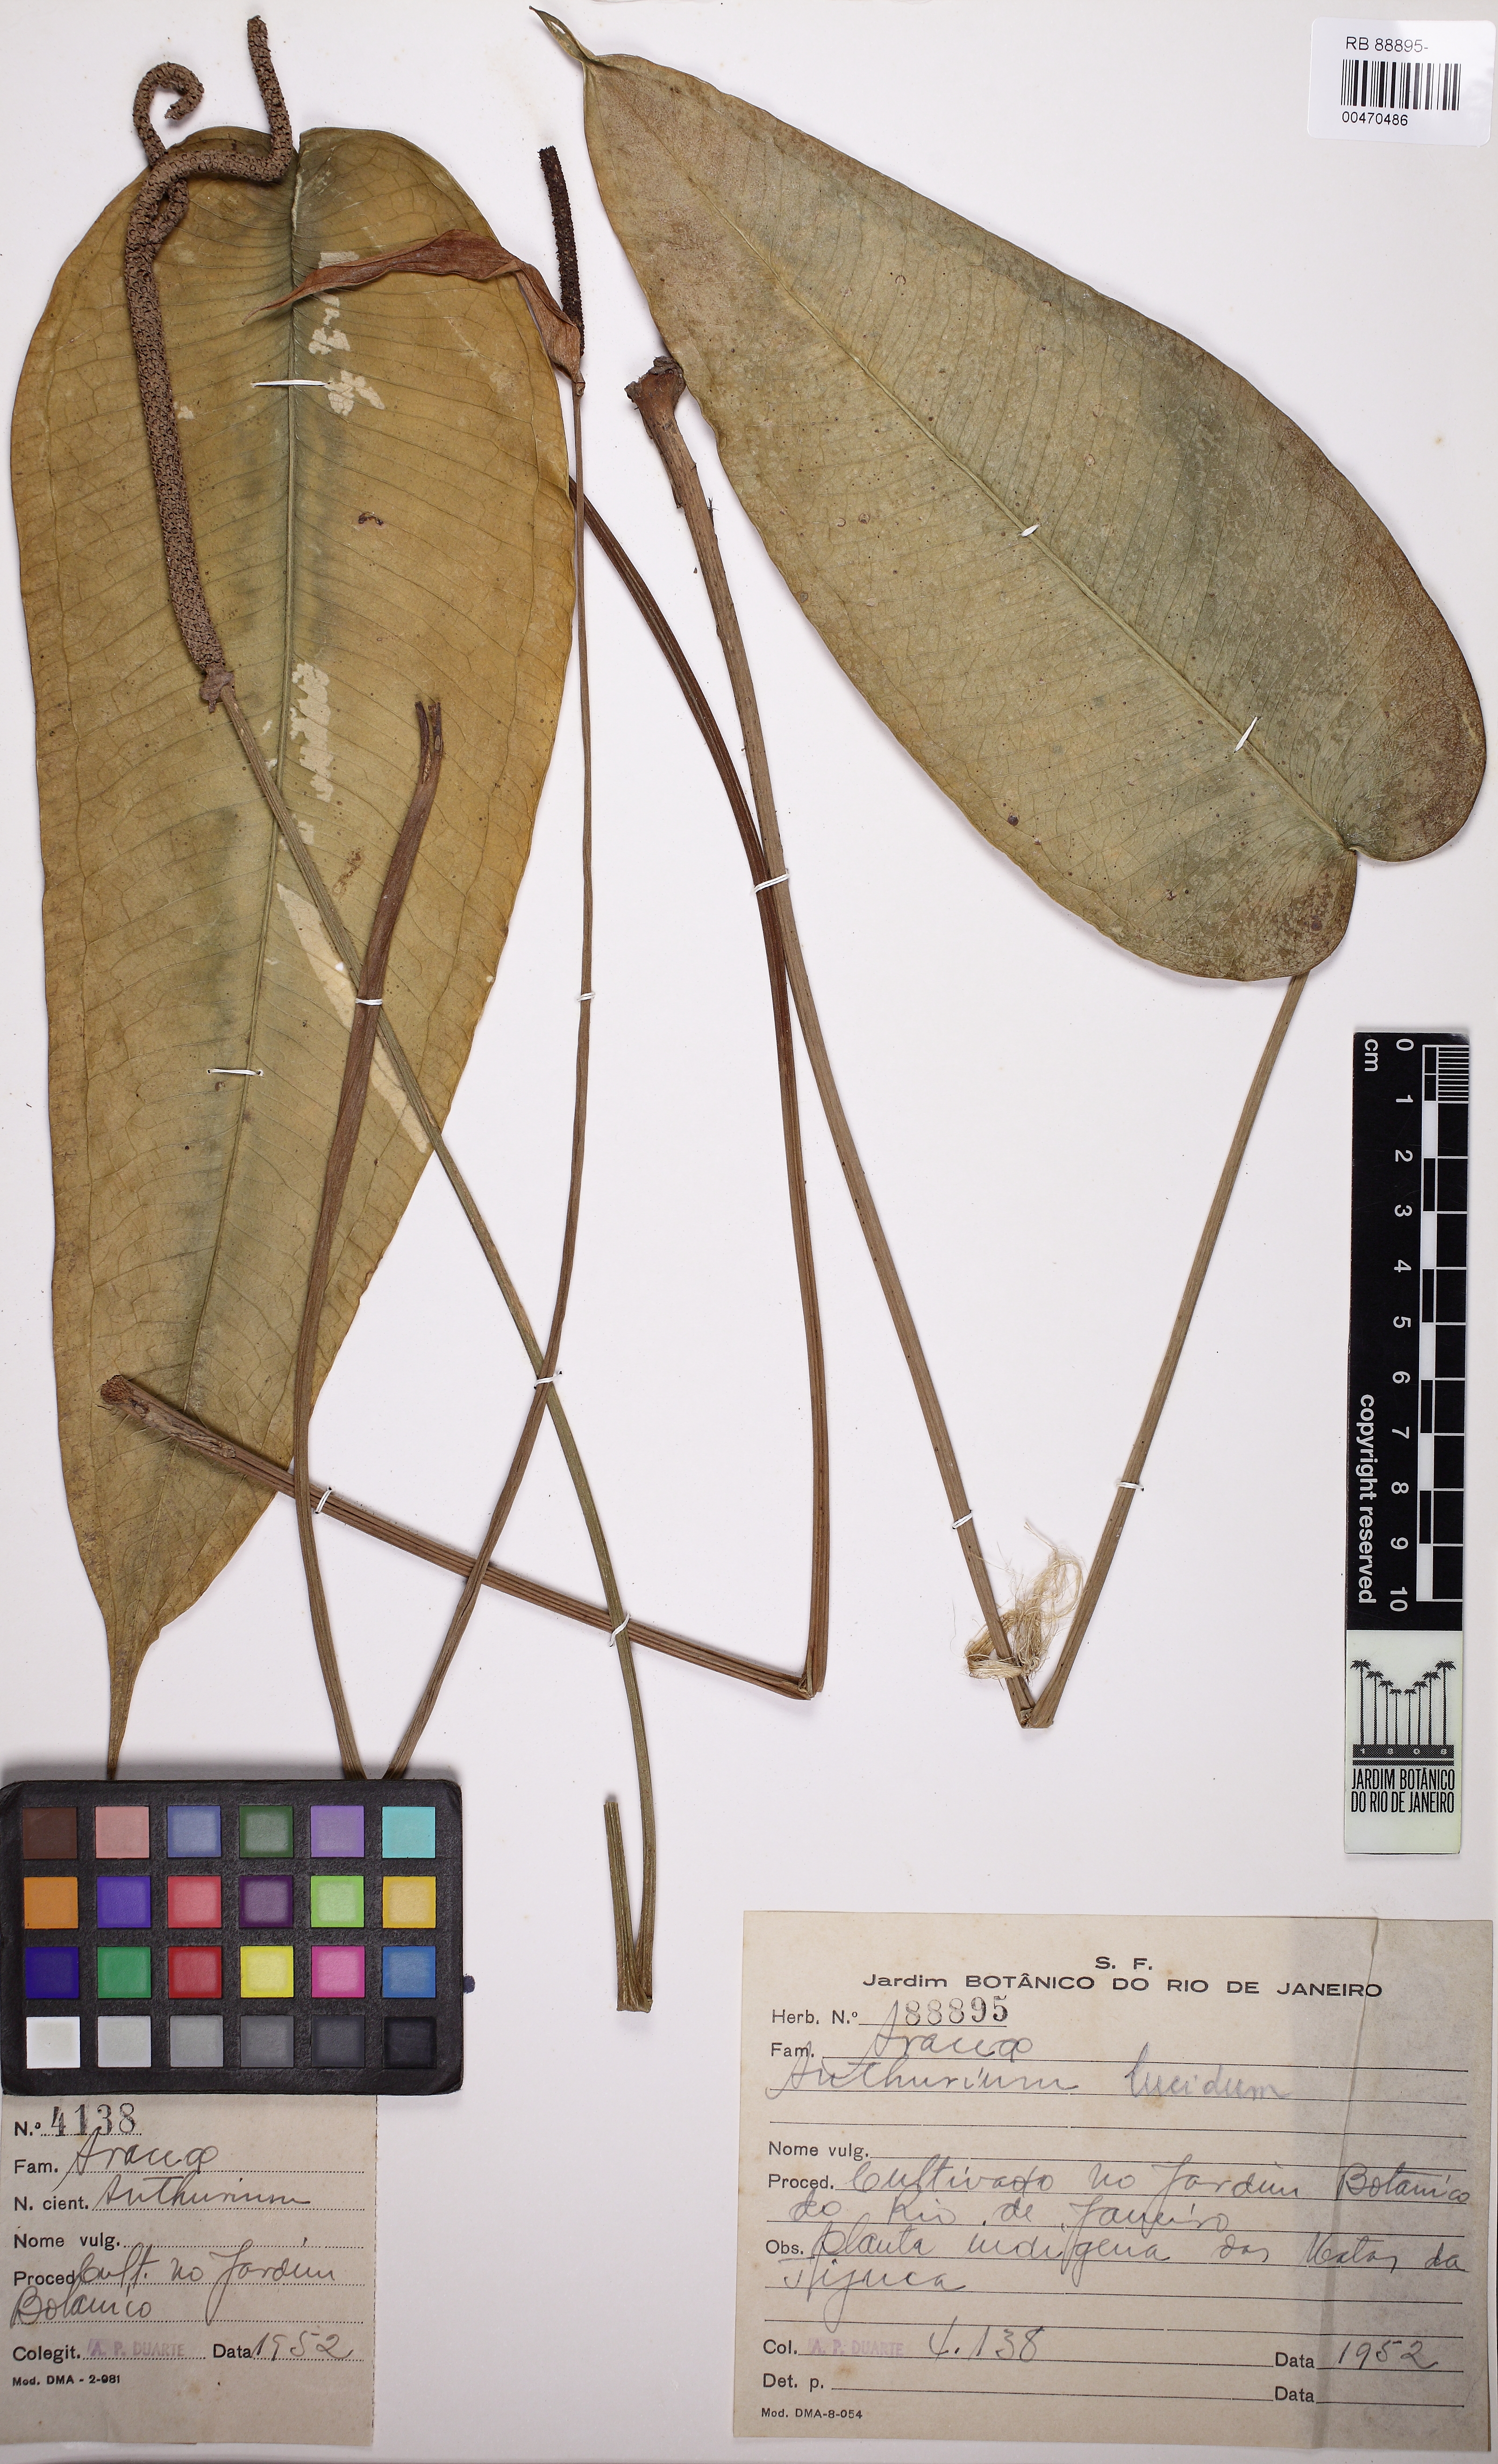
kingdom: Plantae
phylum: Tracheophyta
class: Liliopsida
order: Alismatales
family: Araceae
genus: Anthurium
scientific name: Anthurium lucidum
